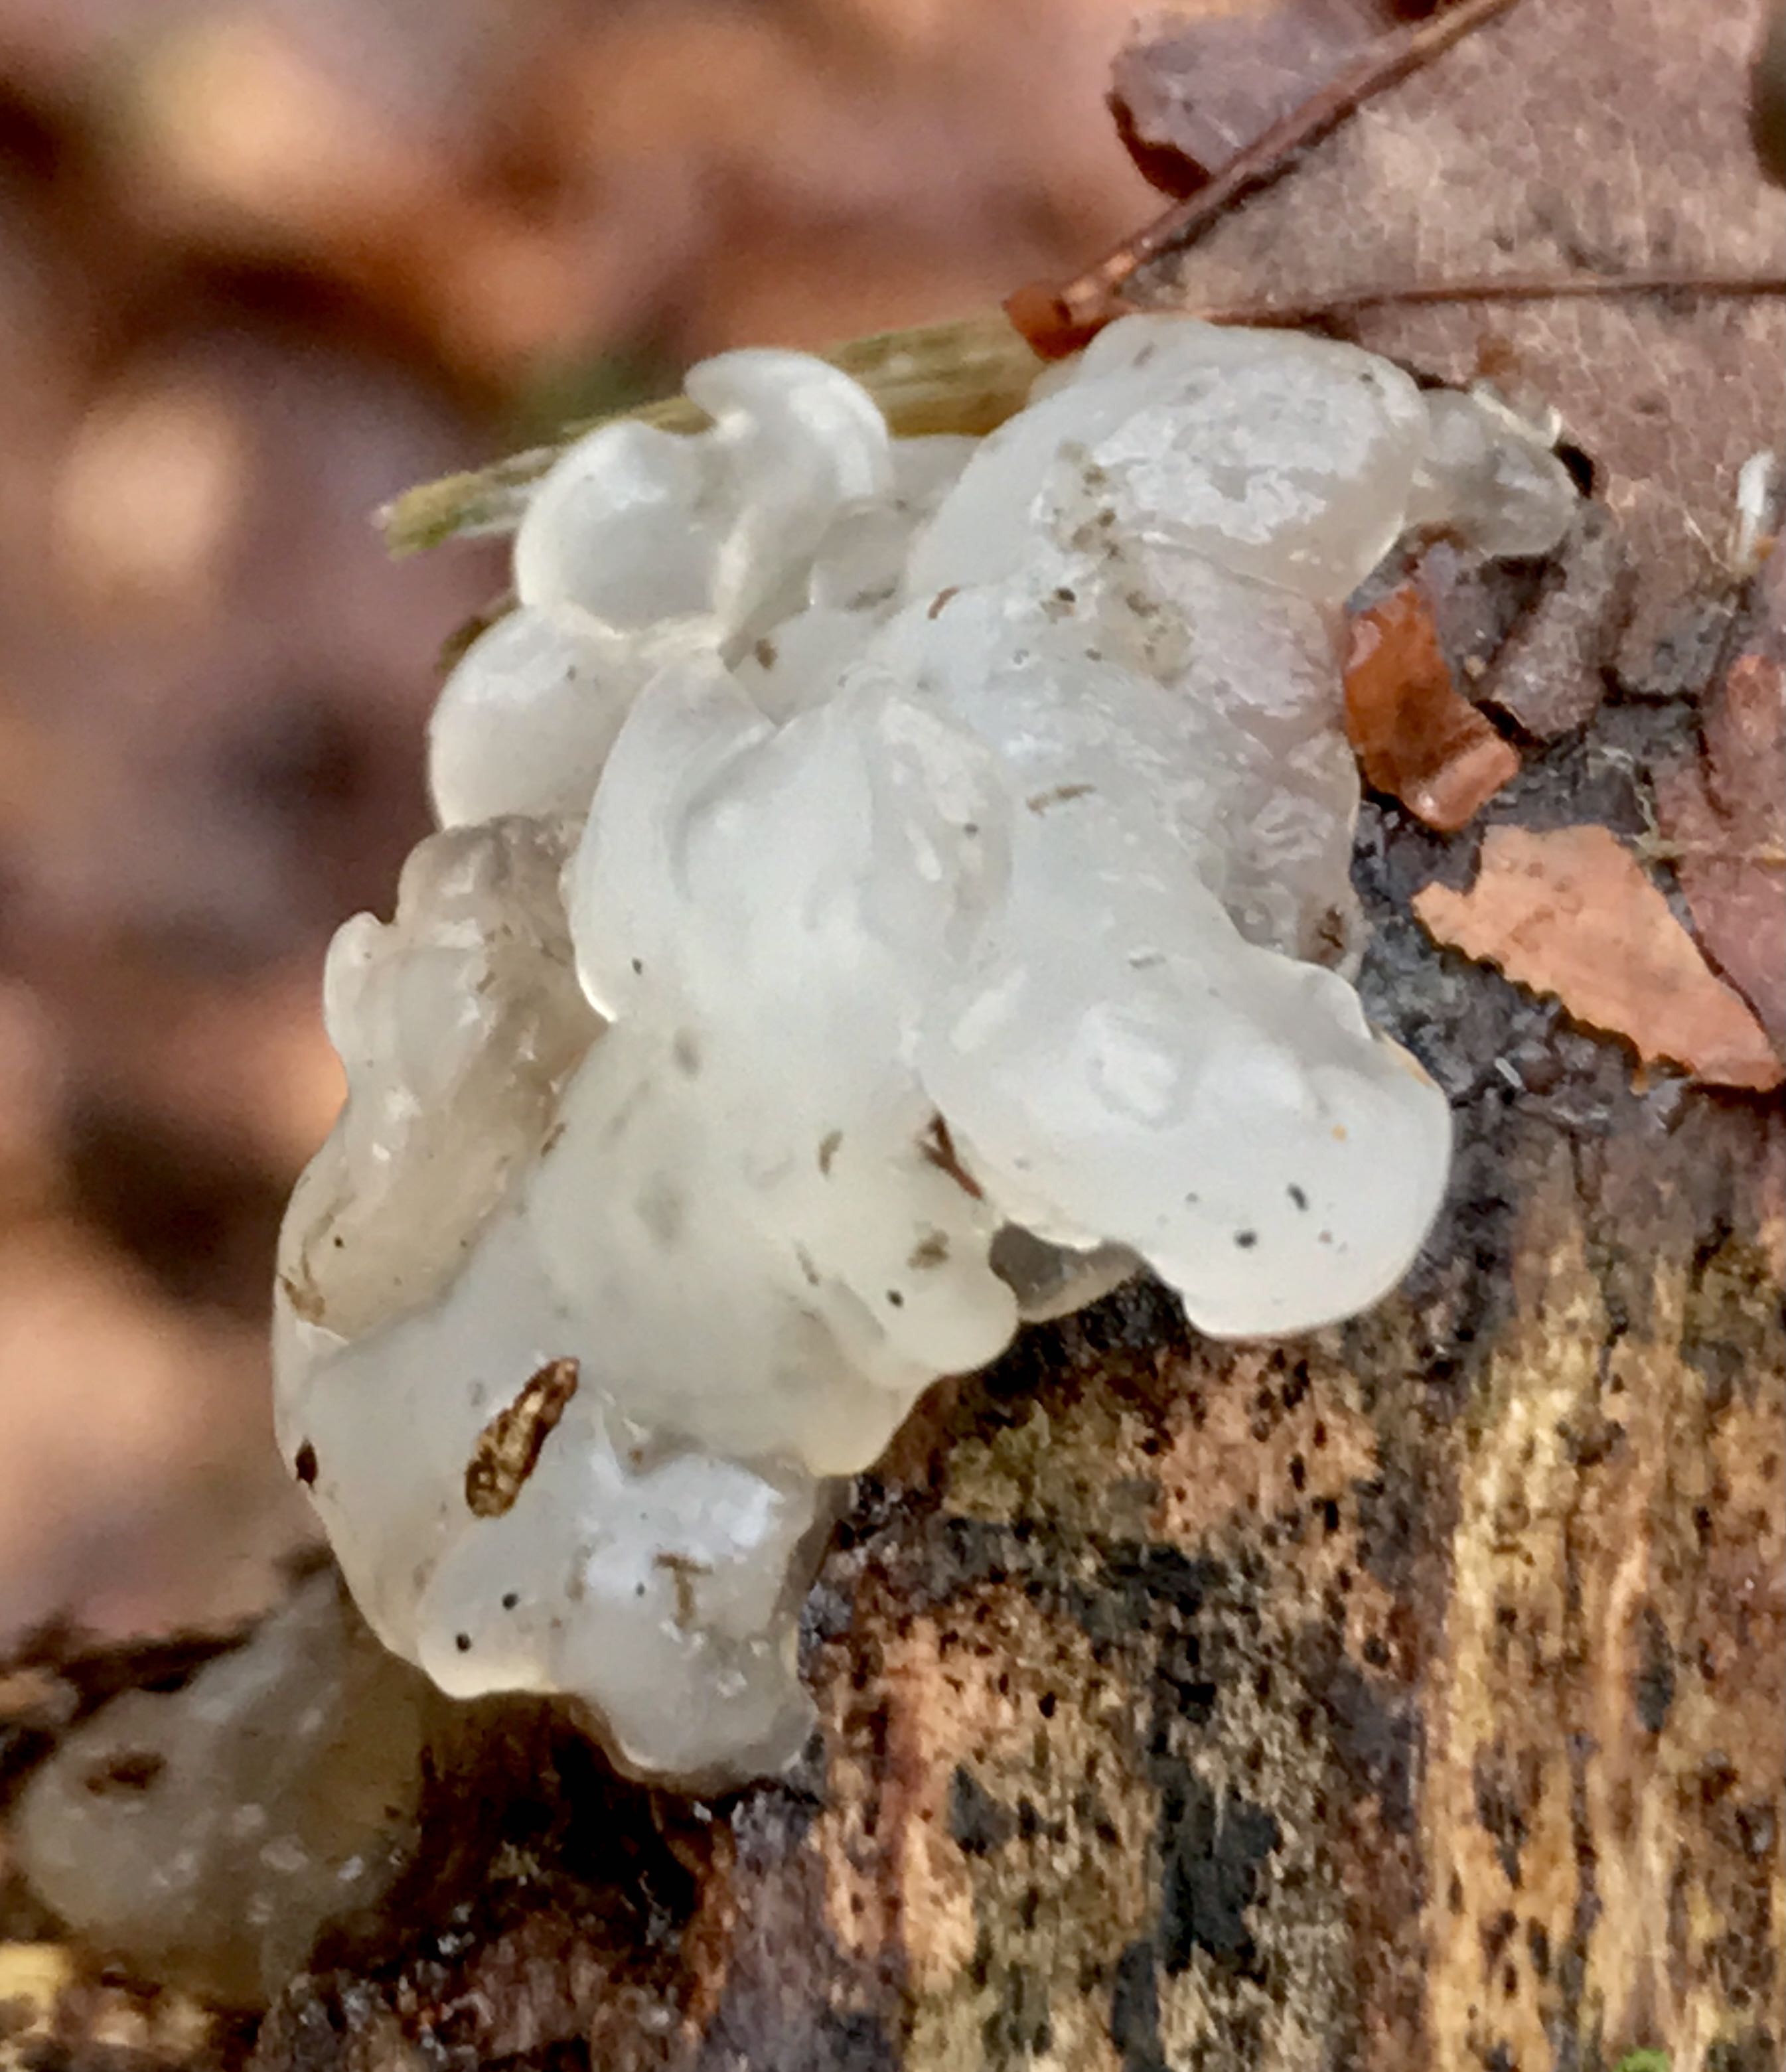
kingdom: Fungi
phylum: Basidiomycota
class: Agaricomycetes
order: Auriculariales
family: Hyaloriaceae
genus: Myxarium
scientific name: Myxarium nucleatum
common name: klar bævretop
